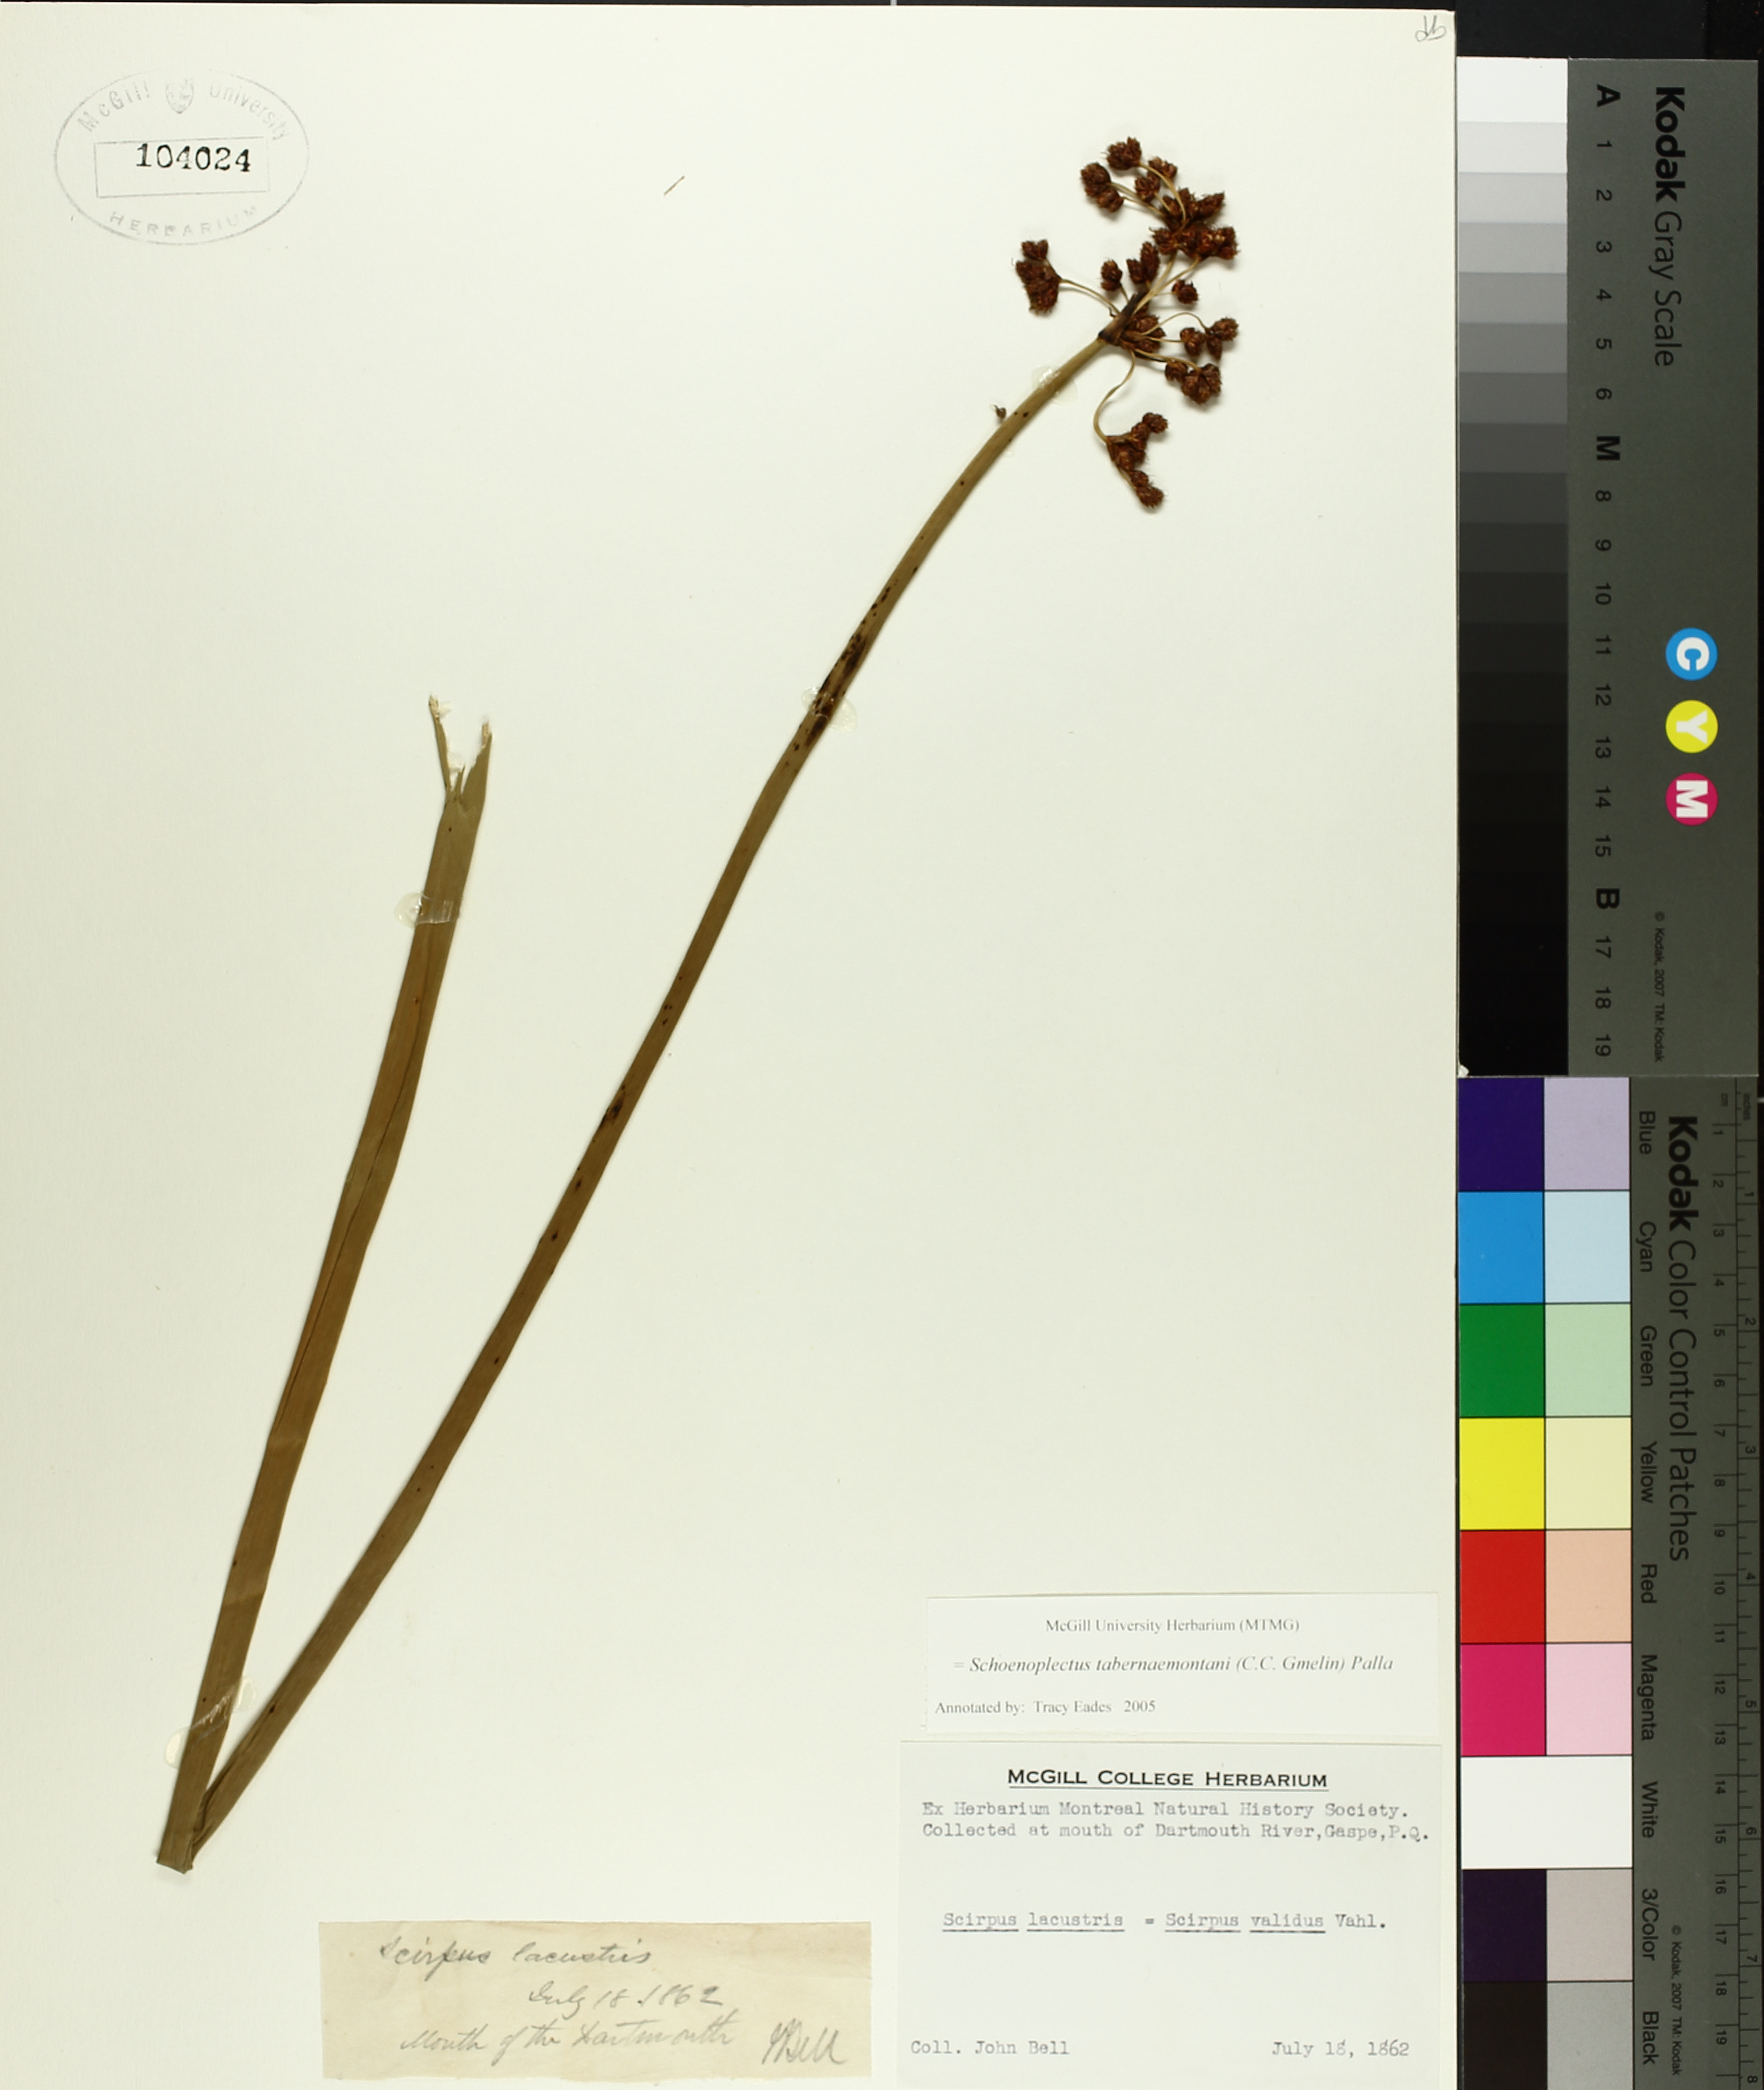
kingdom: Plantae
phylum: Tracheophyta
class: Liliopsida
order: Poales
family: Cyperaceae
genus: Schoenoplectus
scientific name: Schoenoplectus tabernaemontani
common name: Grey club-rush
